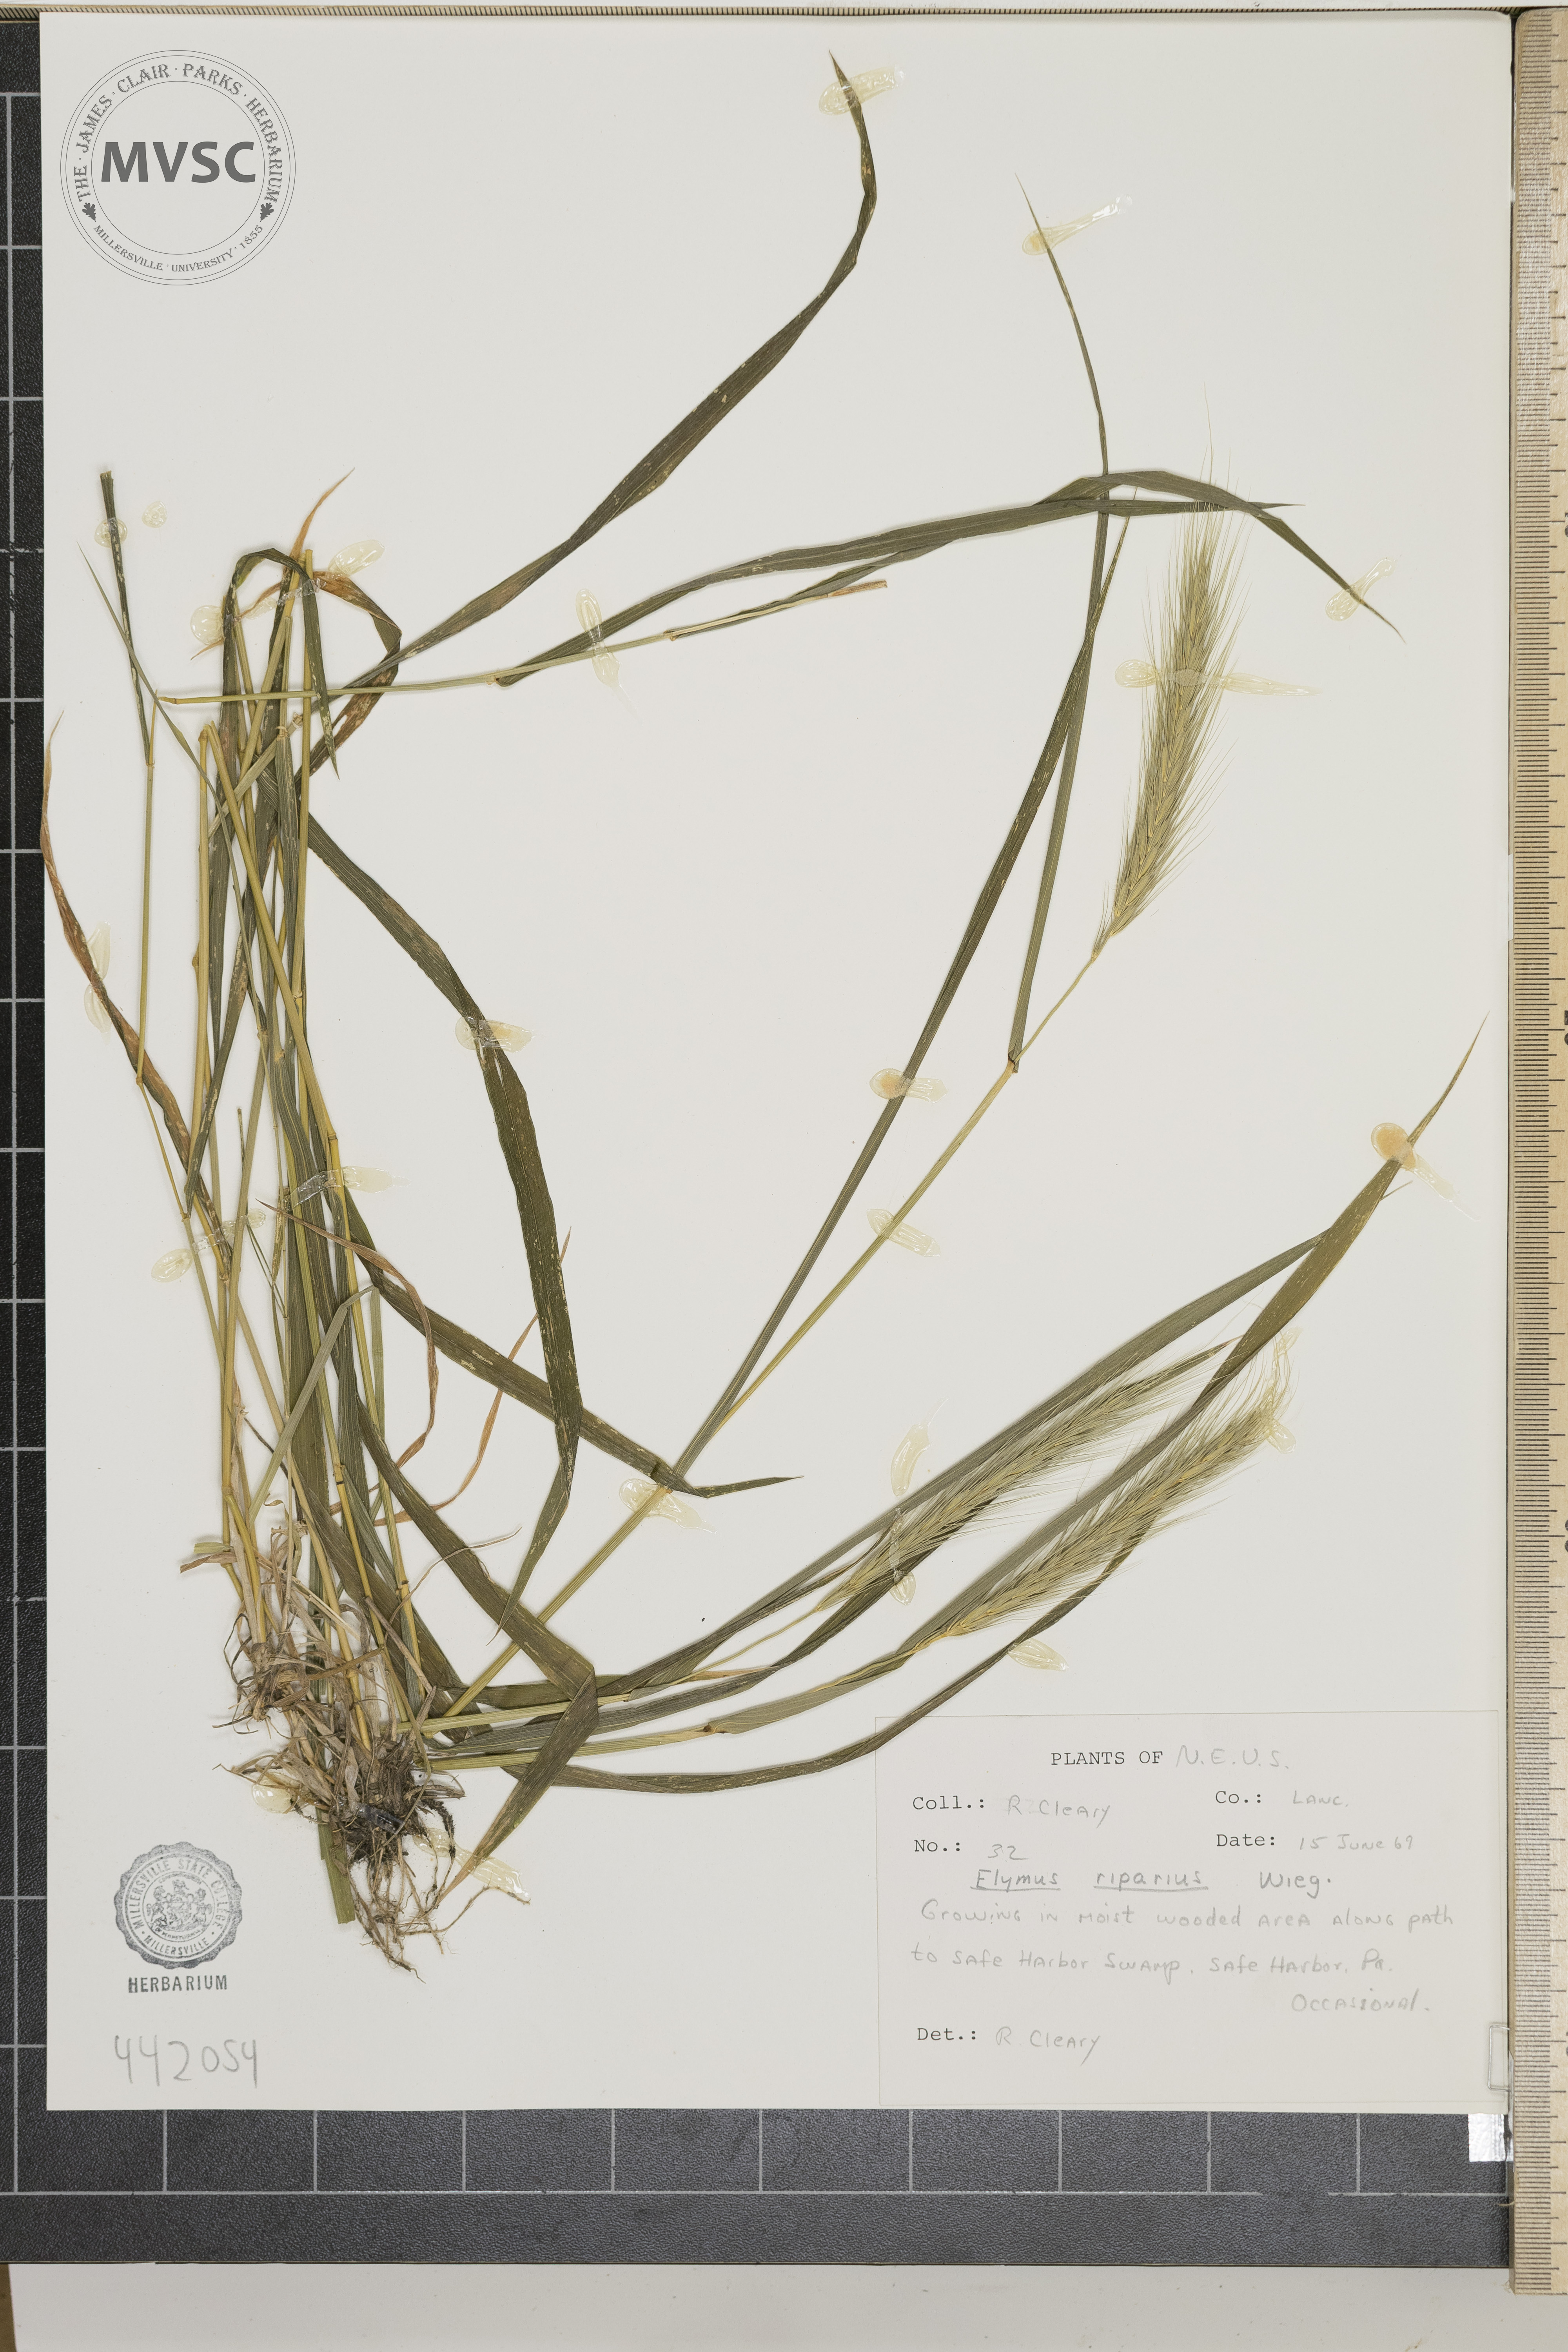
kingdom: Plantae
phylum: Tracheophyta
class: Liliopsida
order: Poales
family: Poaceae
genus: Elymus
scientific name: Elymus riparius
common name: Eastern riverbank wild rye
